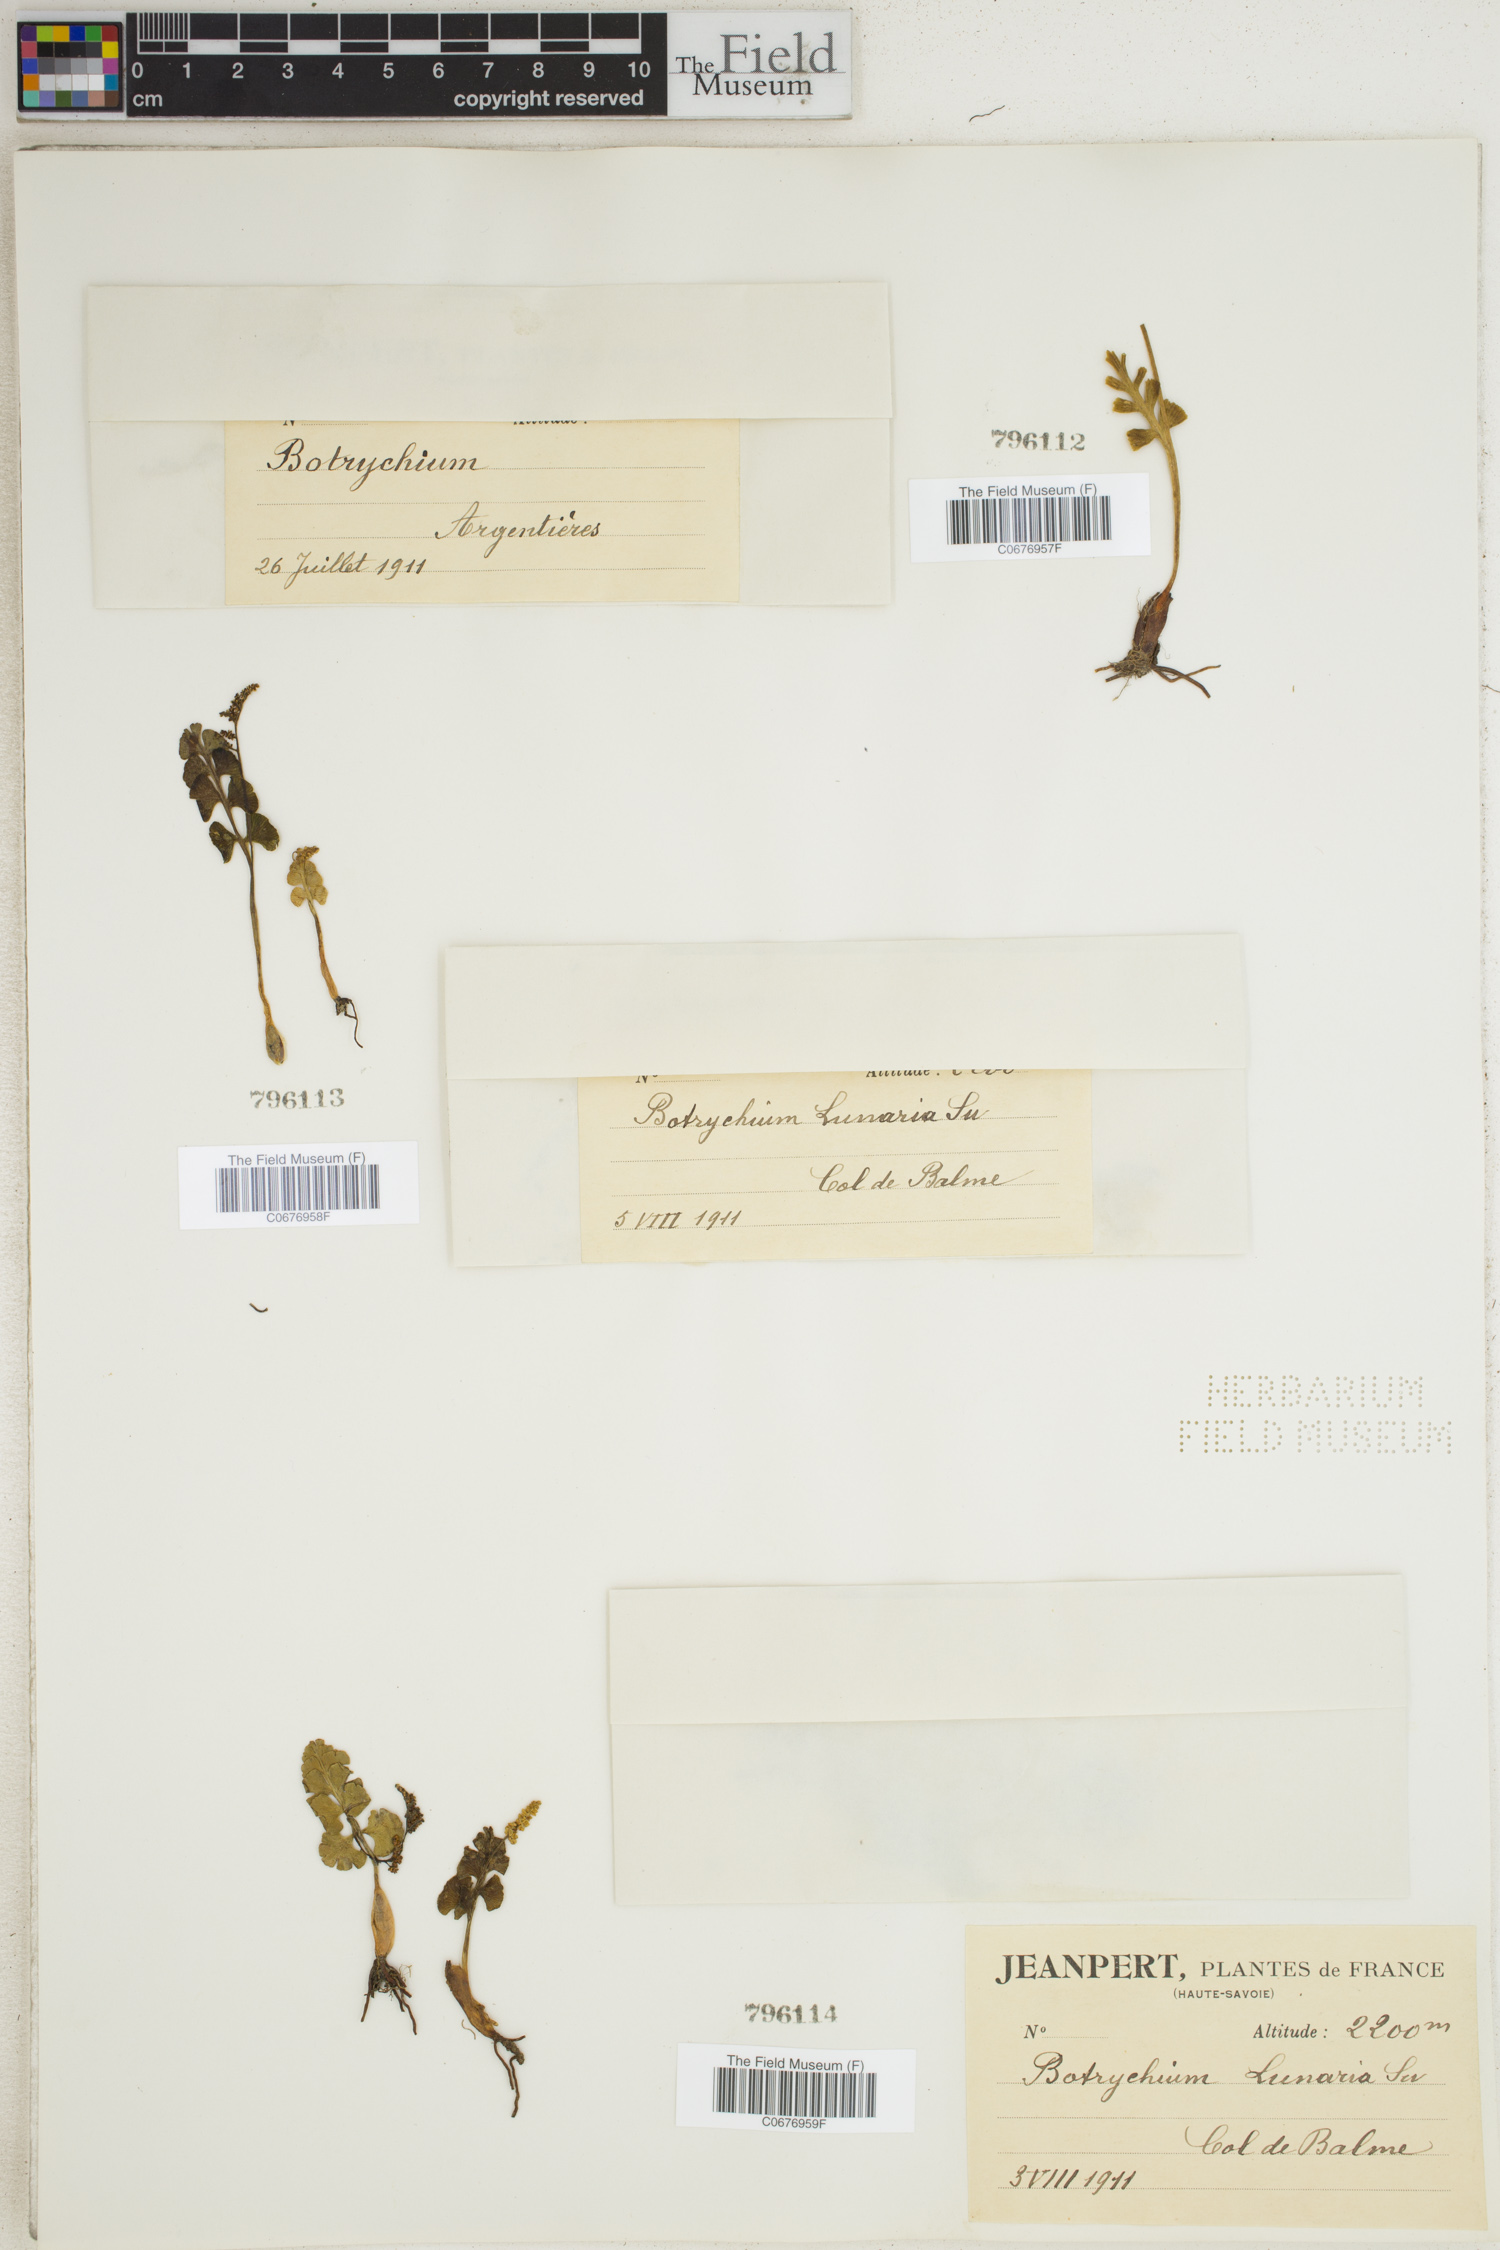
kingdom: Plantae
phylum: Tracheophyta
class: Polypodiopsida
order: Ophioglossales
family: Ophioglossaceae
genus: Botrychium
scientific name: Botrychium
